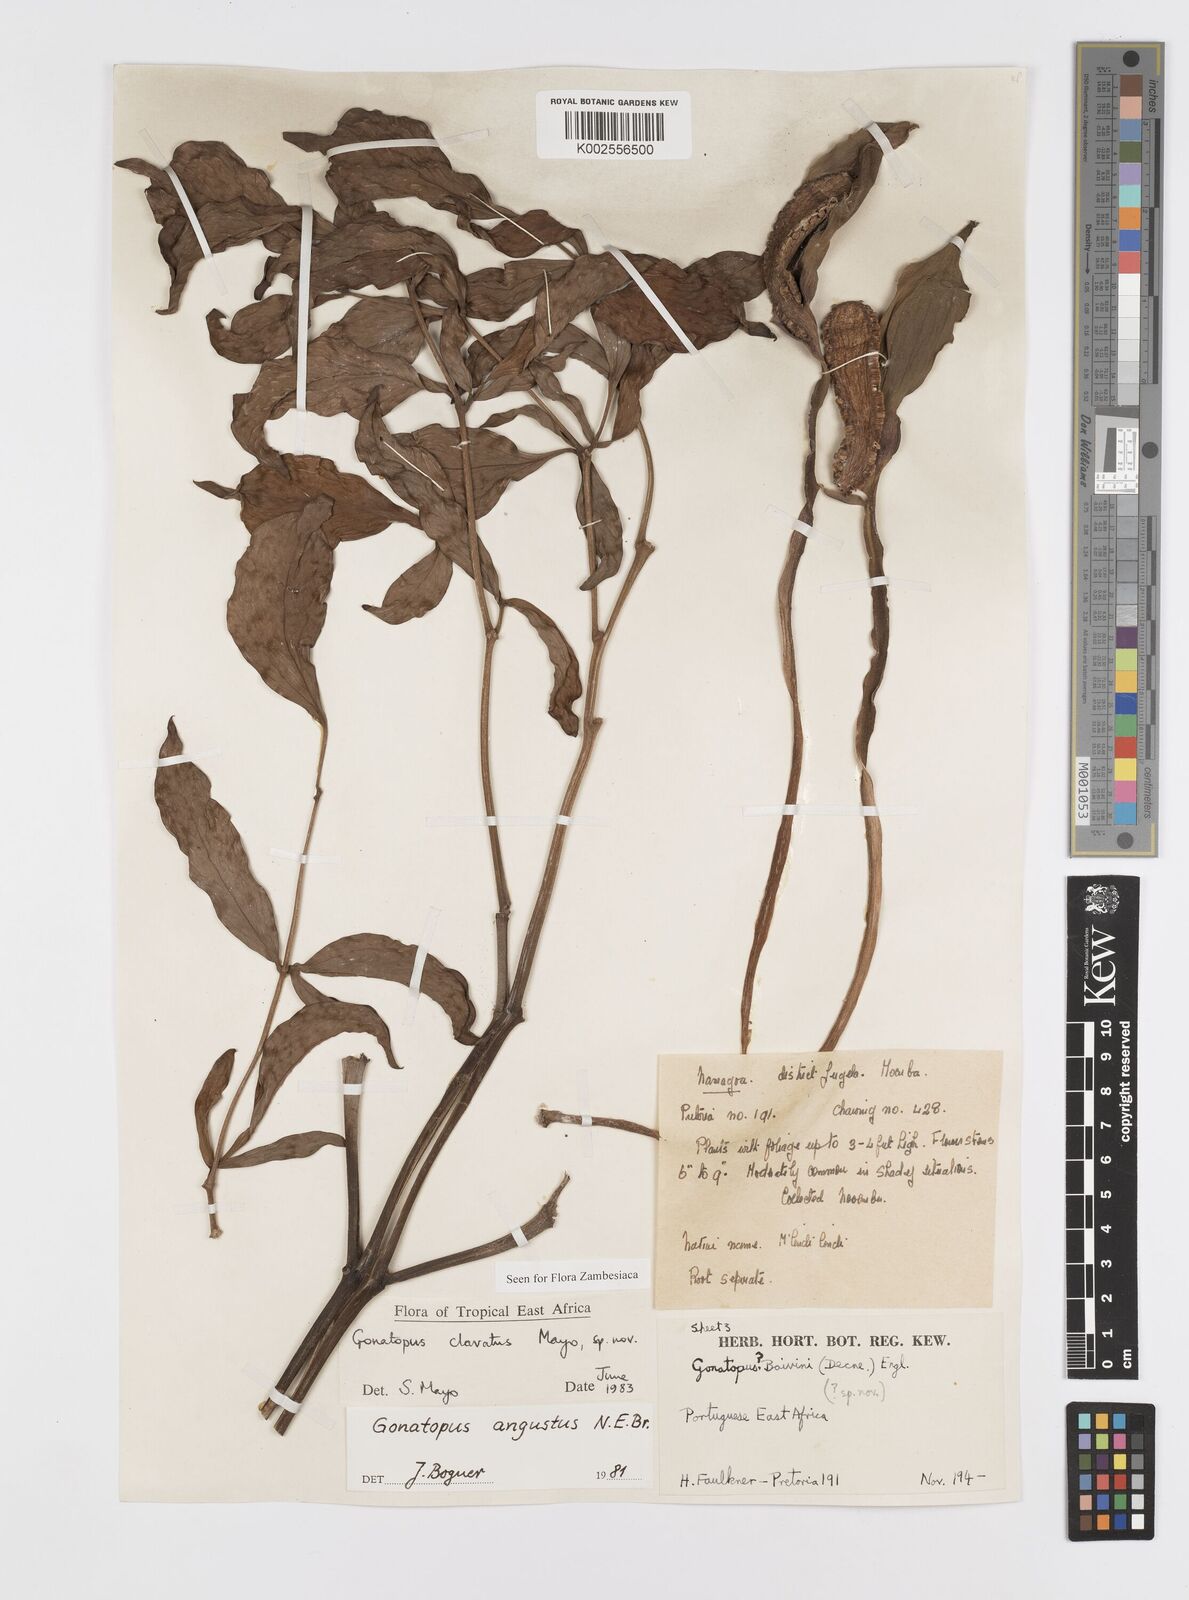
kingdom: Plantae
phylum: Tracheophyta
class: Liliopsida
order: Alismatales
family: Araceae
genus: Gonatopus
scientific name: Gonatopus clavatus
